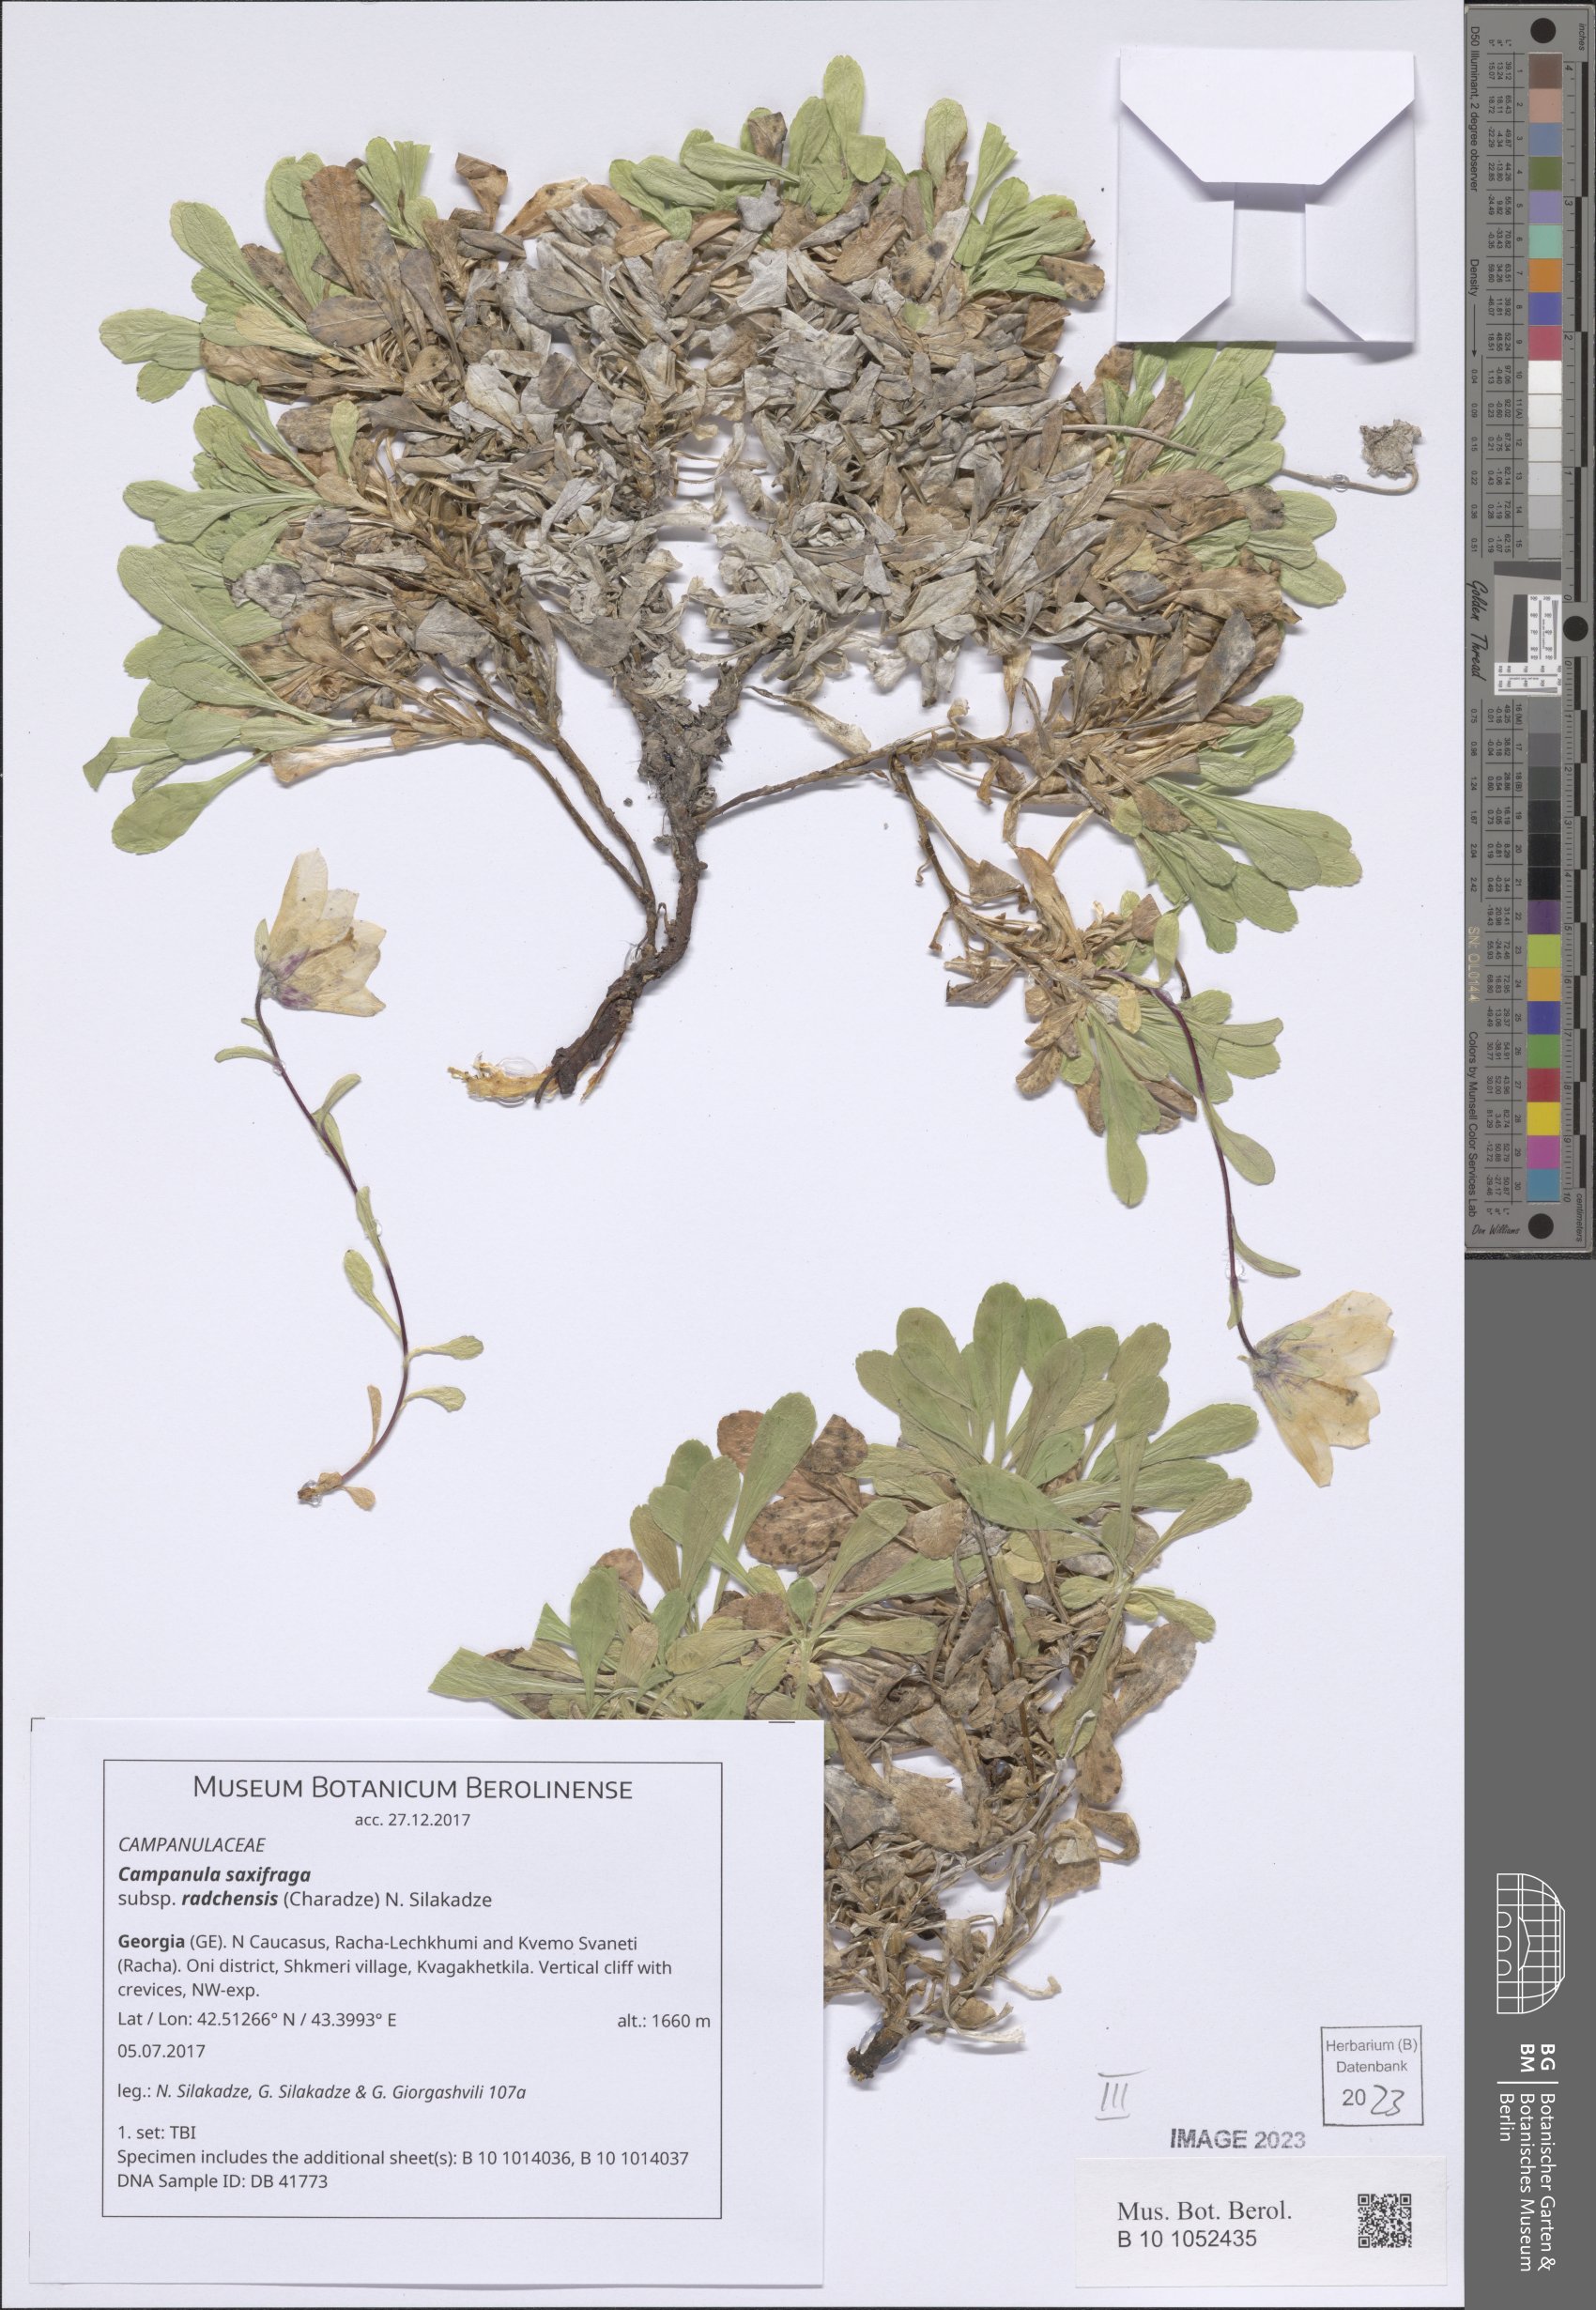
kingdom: Plantae
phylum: Tracheophyta
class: Magnoliopsida
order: Asterales
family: Campanulaceae
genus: Campanula
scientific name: Campanula saxifraga
